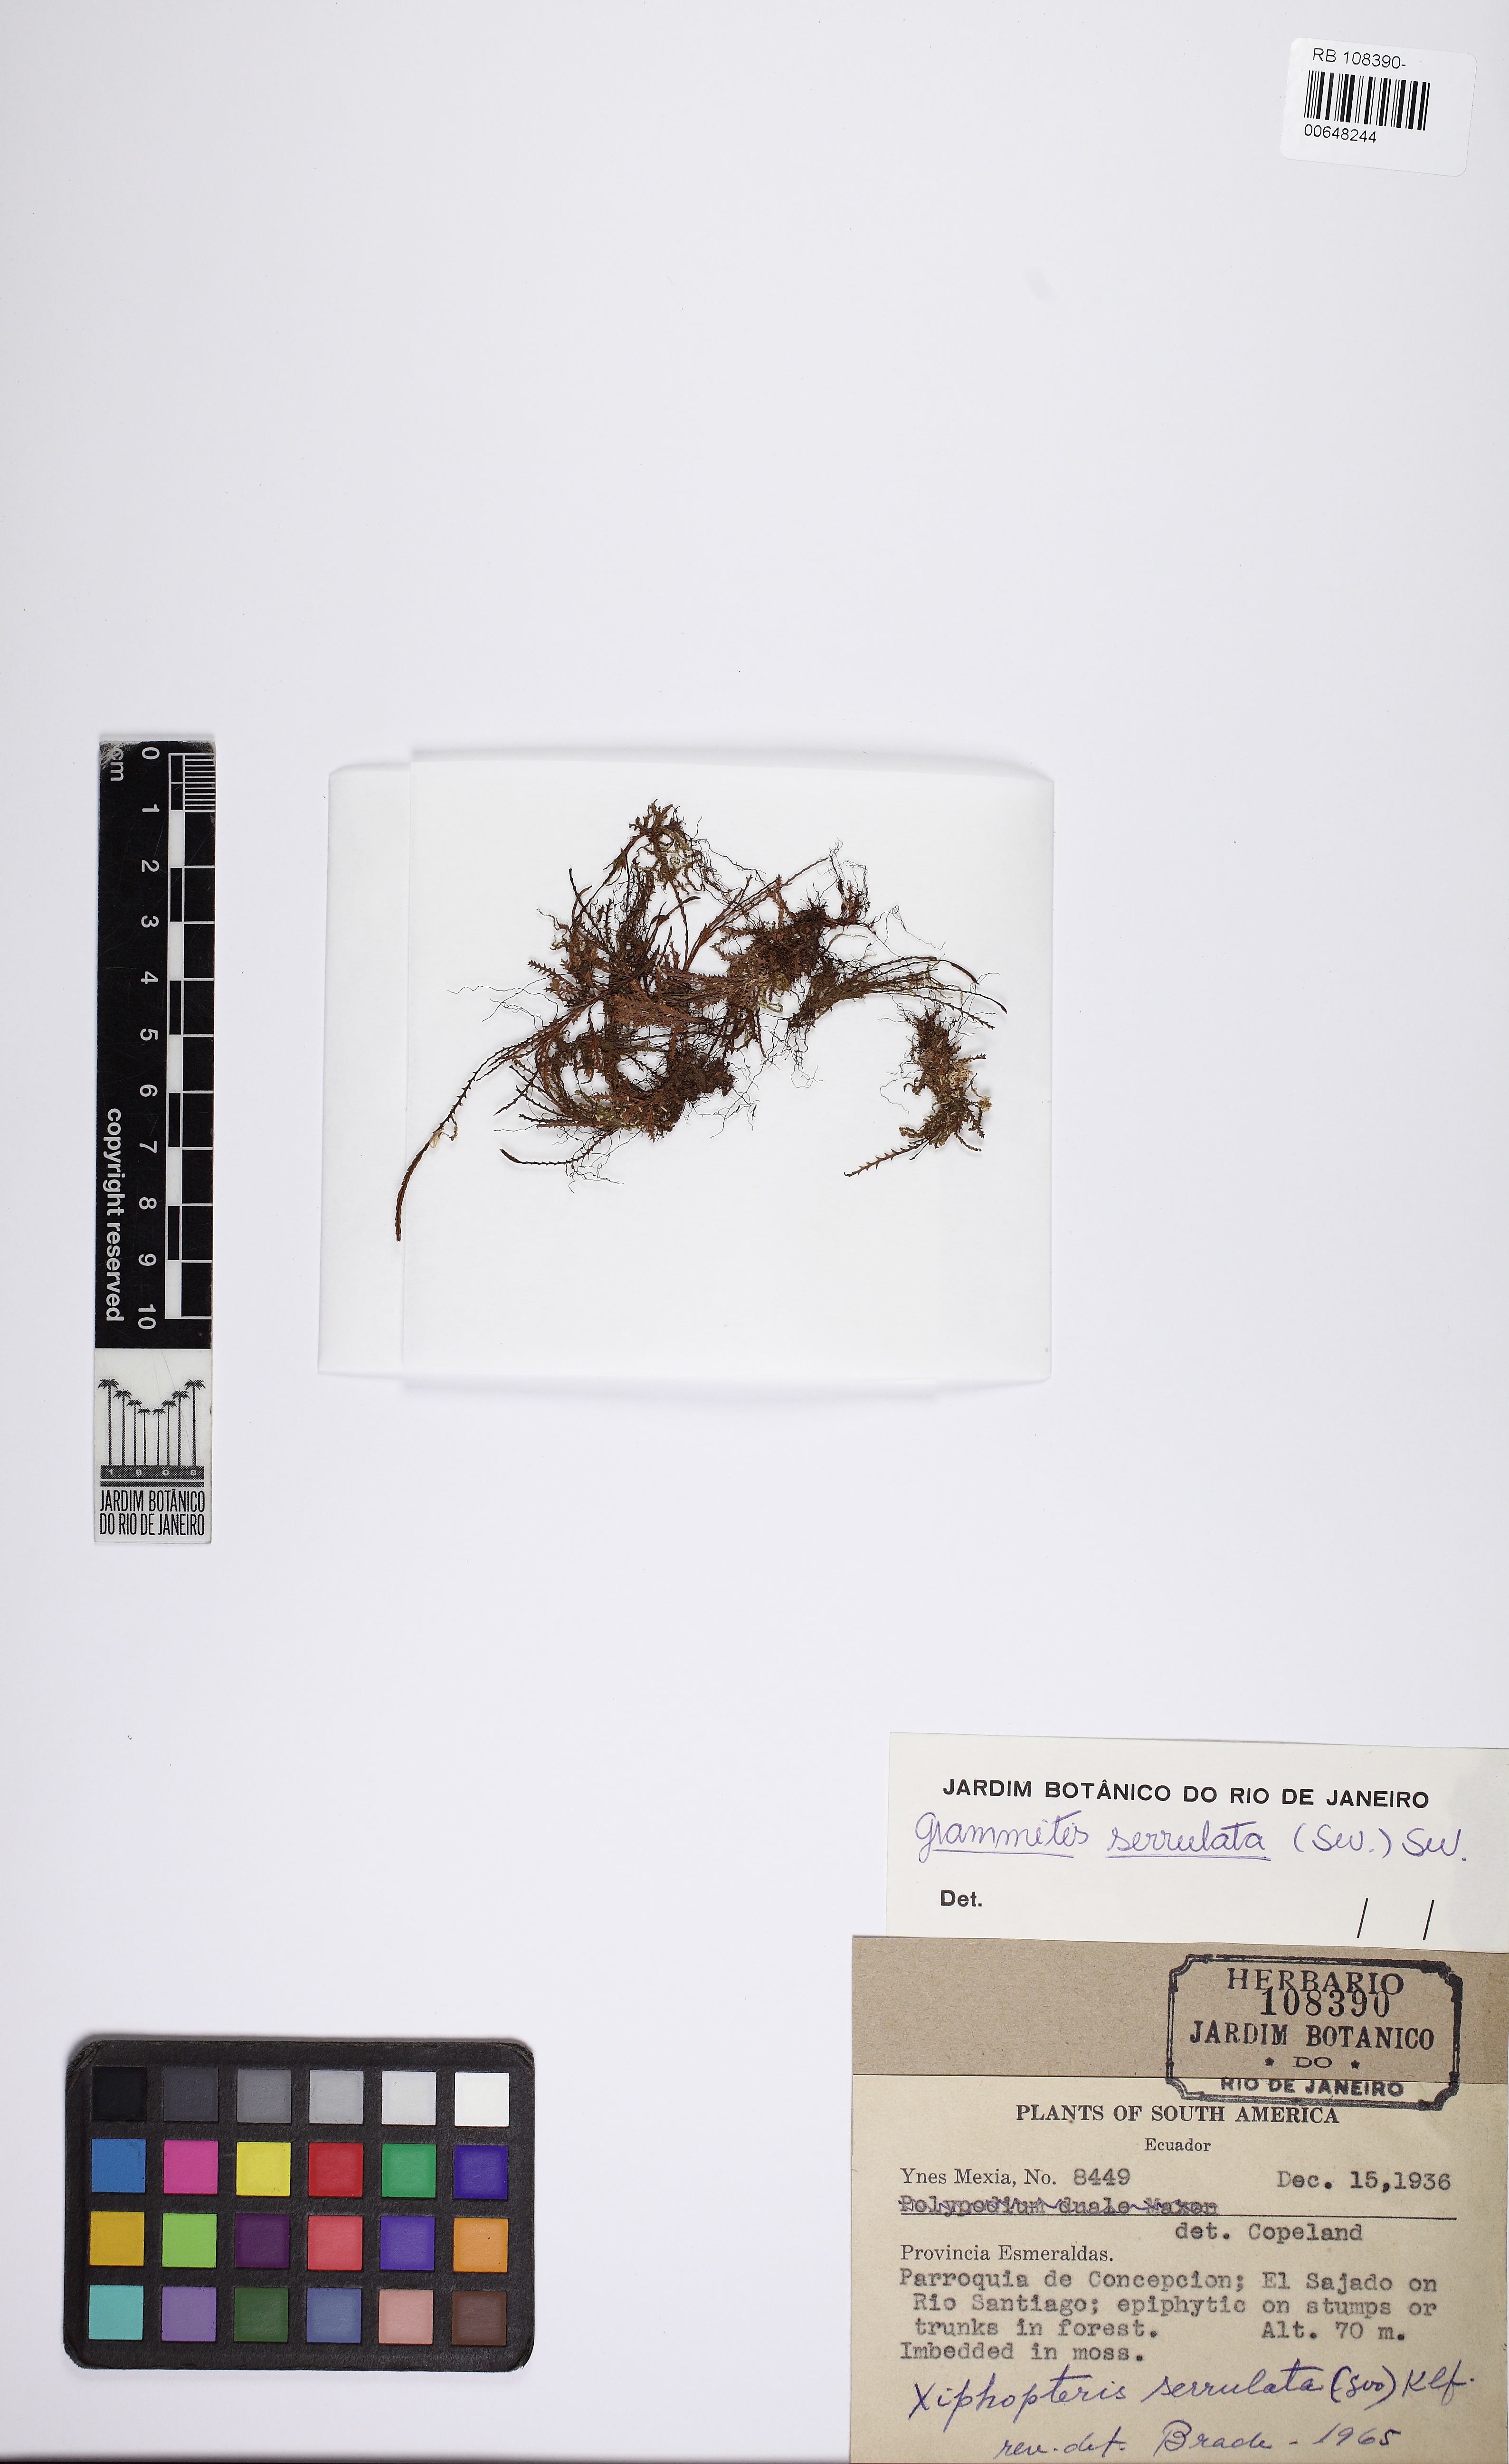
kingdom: Plantae
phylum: Tracheophyta
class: Polypodiopsida
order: Polypodiales
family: Polypodiaceae
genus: Cochlidium
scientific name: Cochlidium serrulatum
